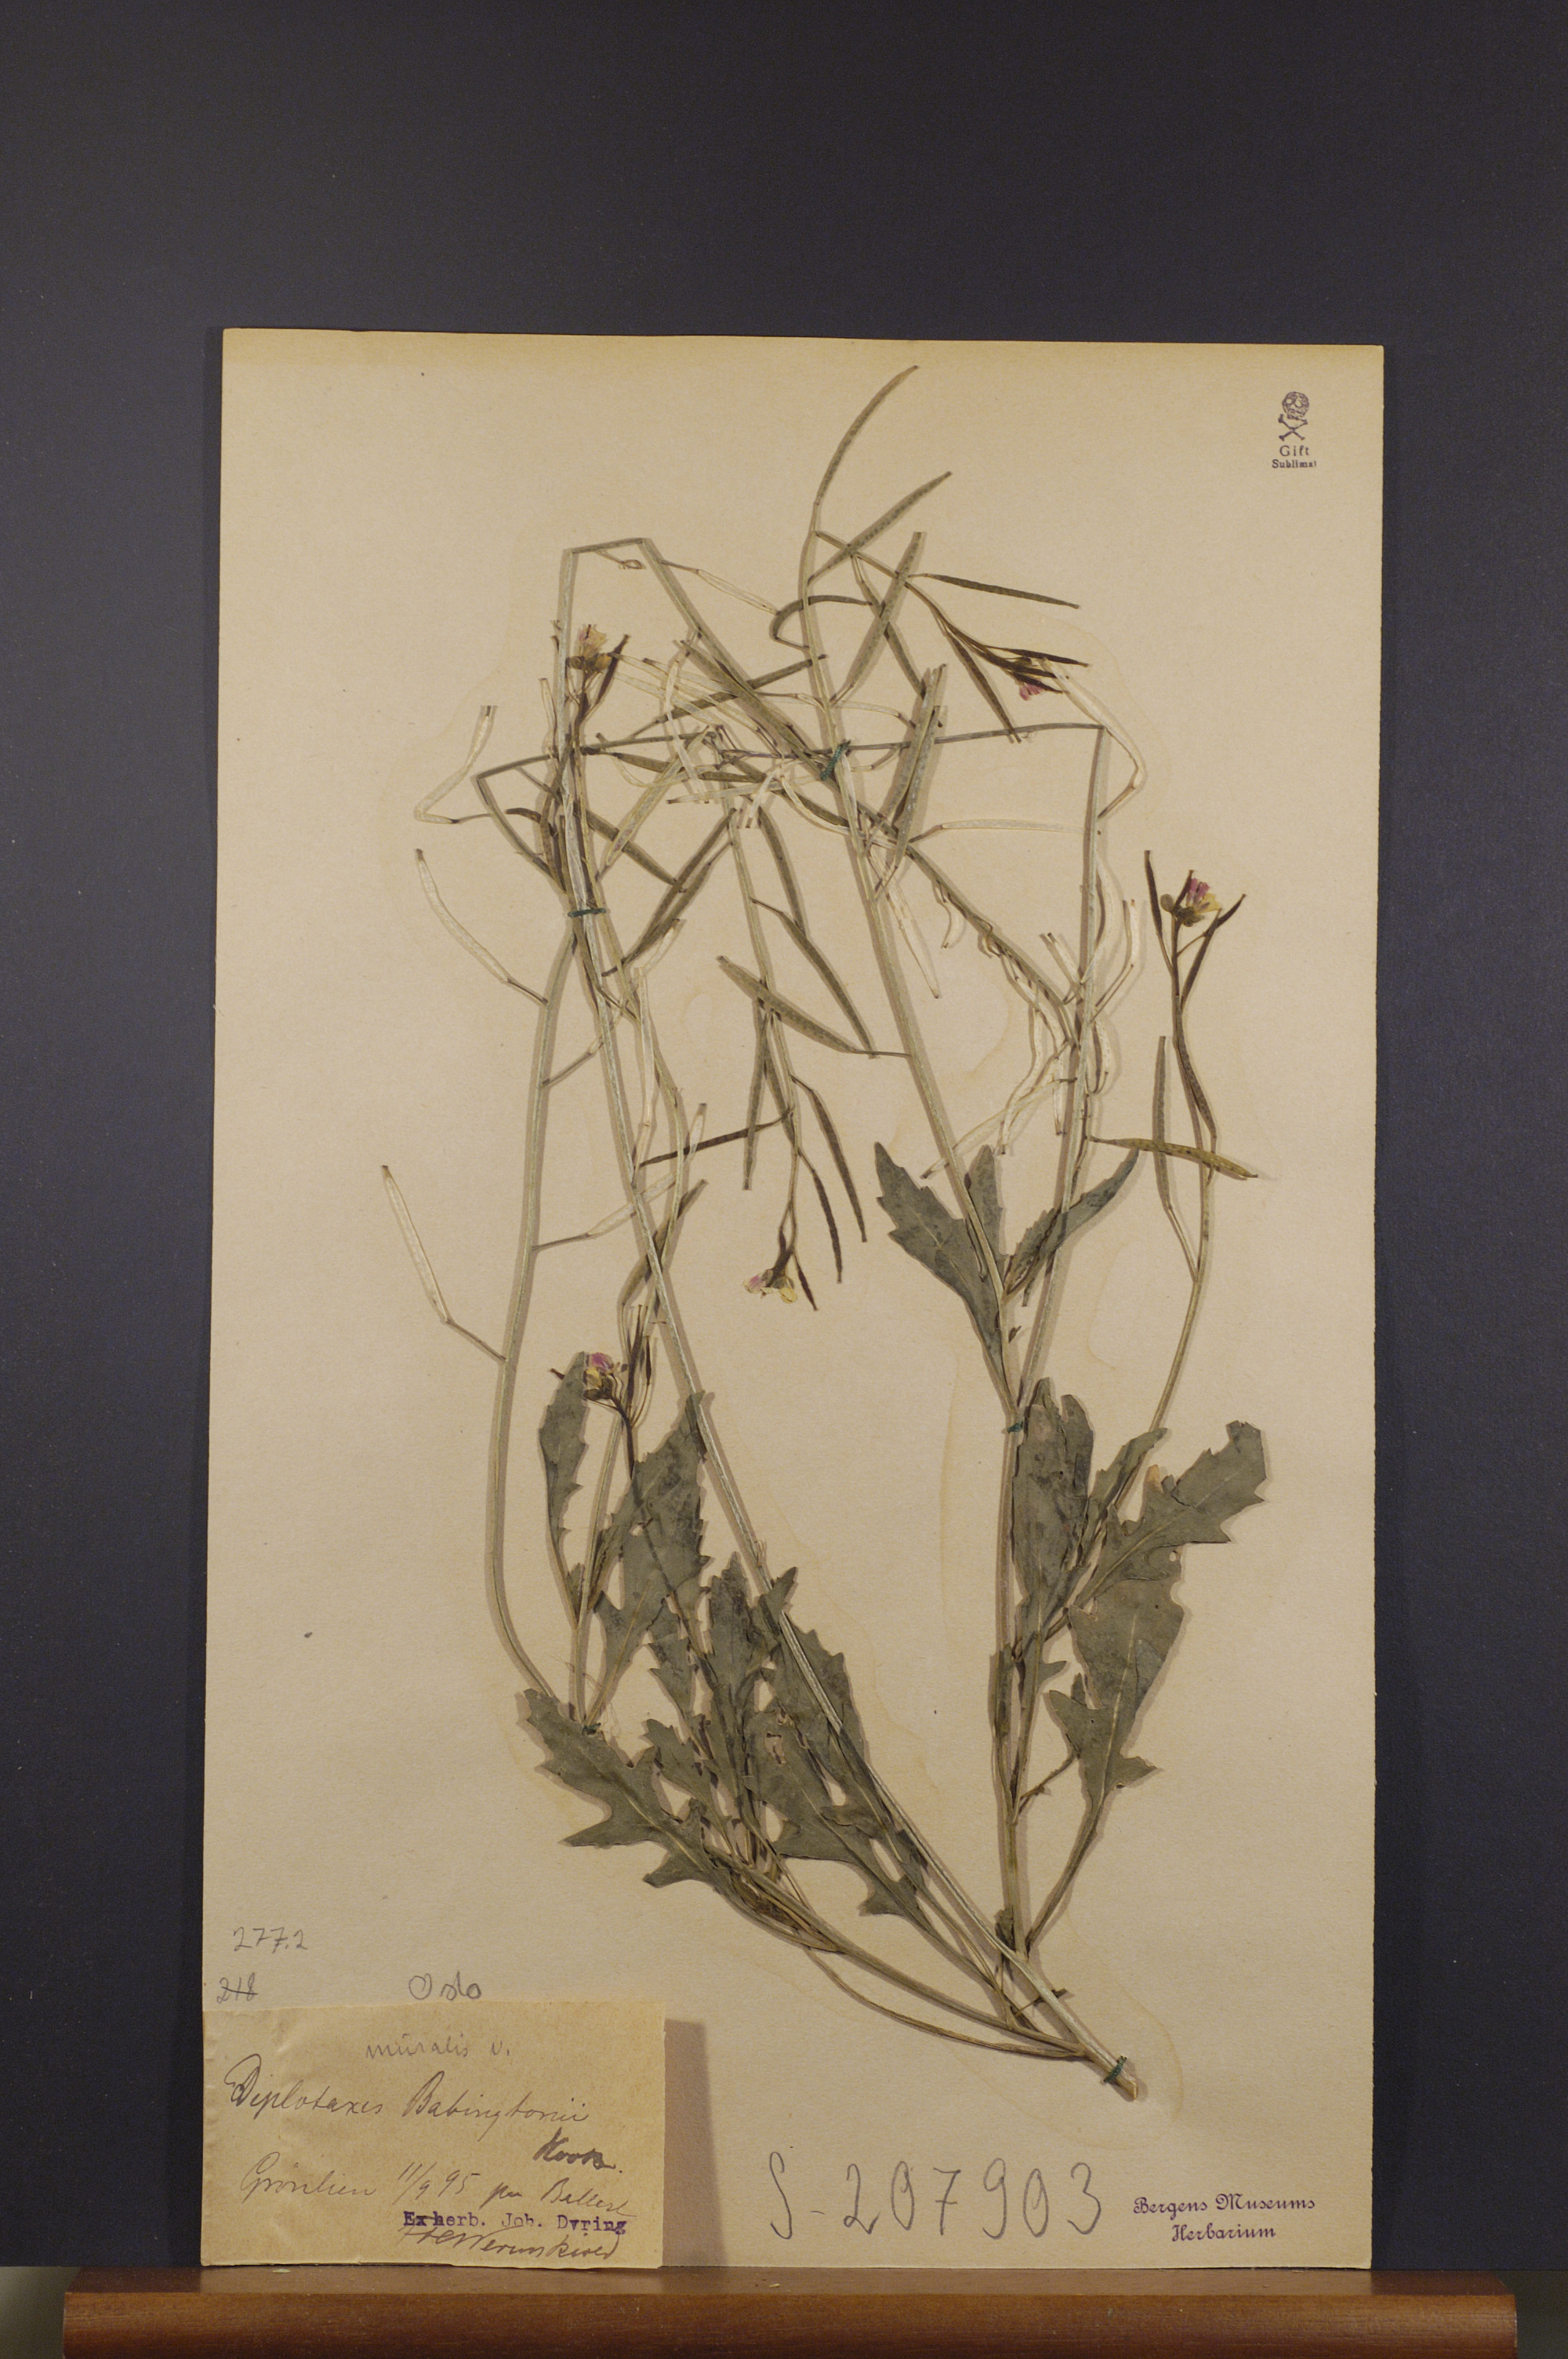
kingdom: Plantae
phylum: Tracheophyta
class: Magnoliopsida
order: Brassicales
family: Brassicaceae
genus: Diplotaxis
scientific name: Diplotaxis muralis
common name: Annual wall-rocket
